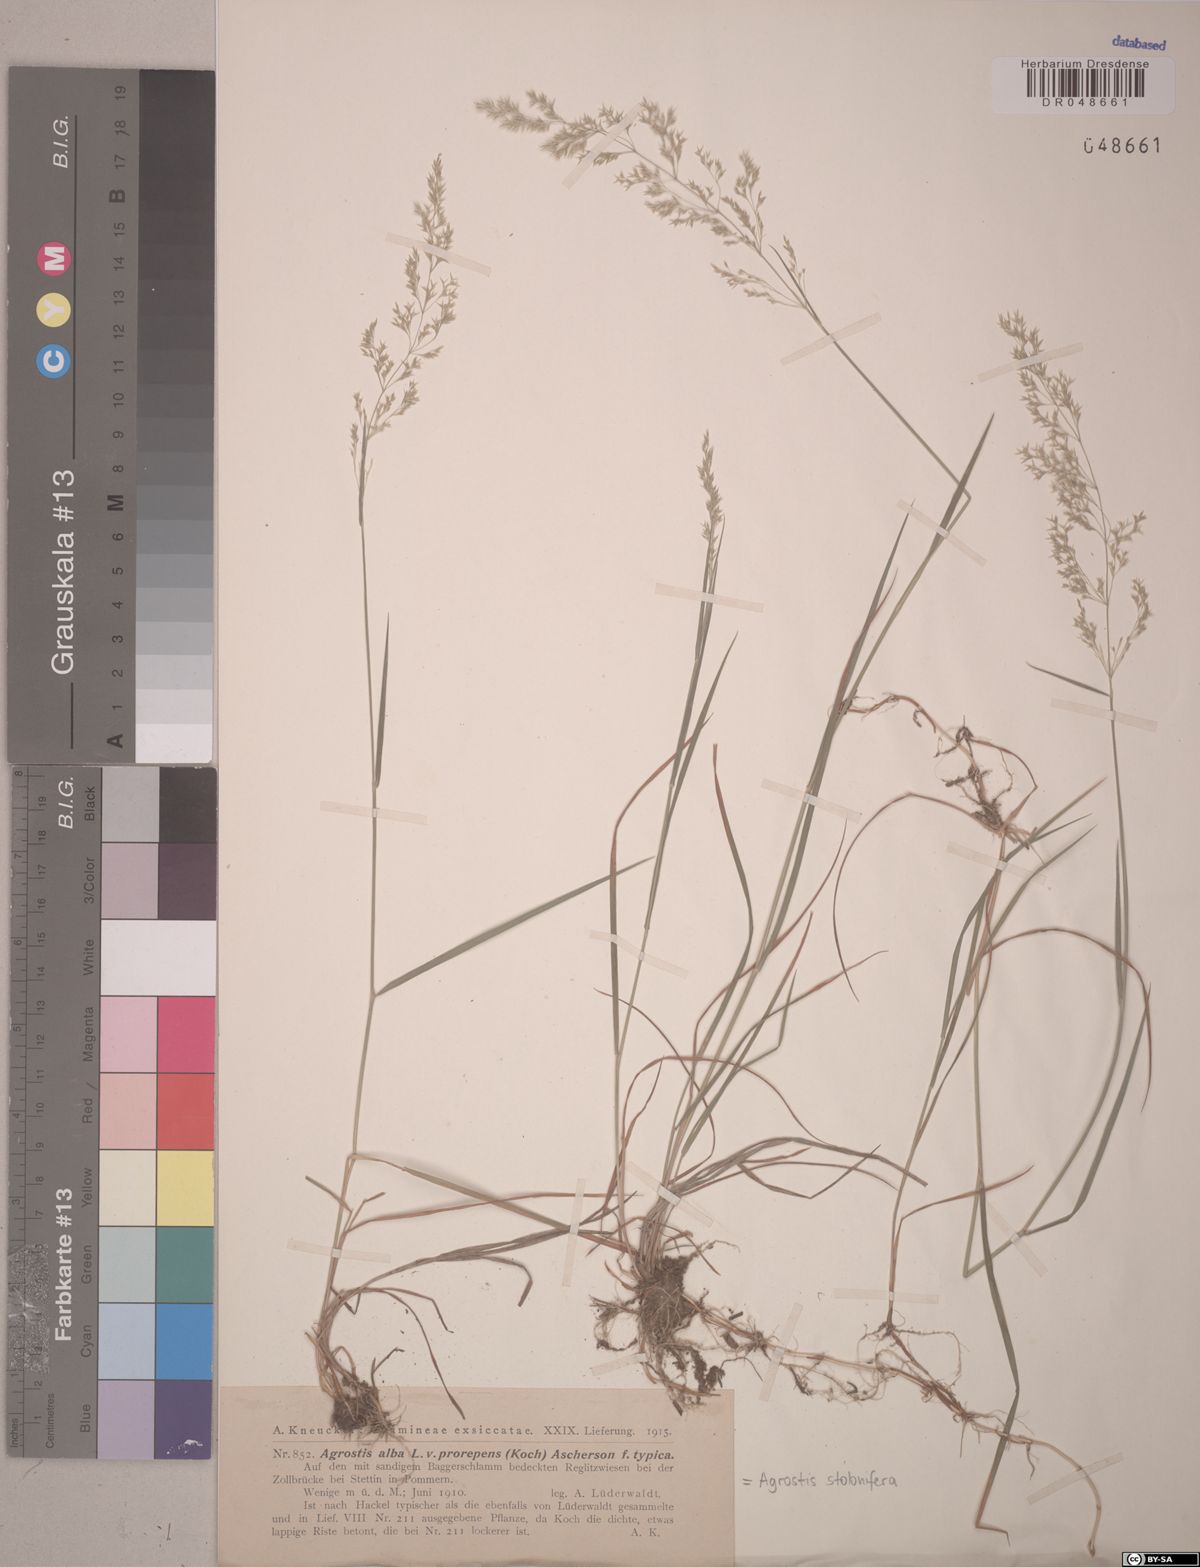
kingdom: Plantae
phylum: Tracheophyta
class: Liliopsida
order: Poales
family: Poaceae
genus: Agrostis
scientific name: Agrostis stolonifera
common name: Creeping bentgrass
